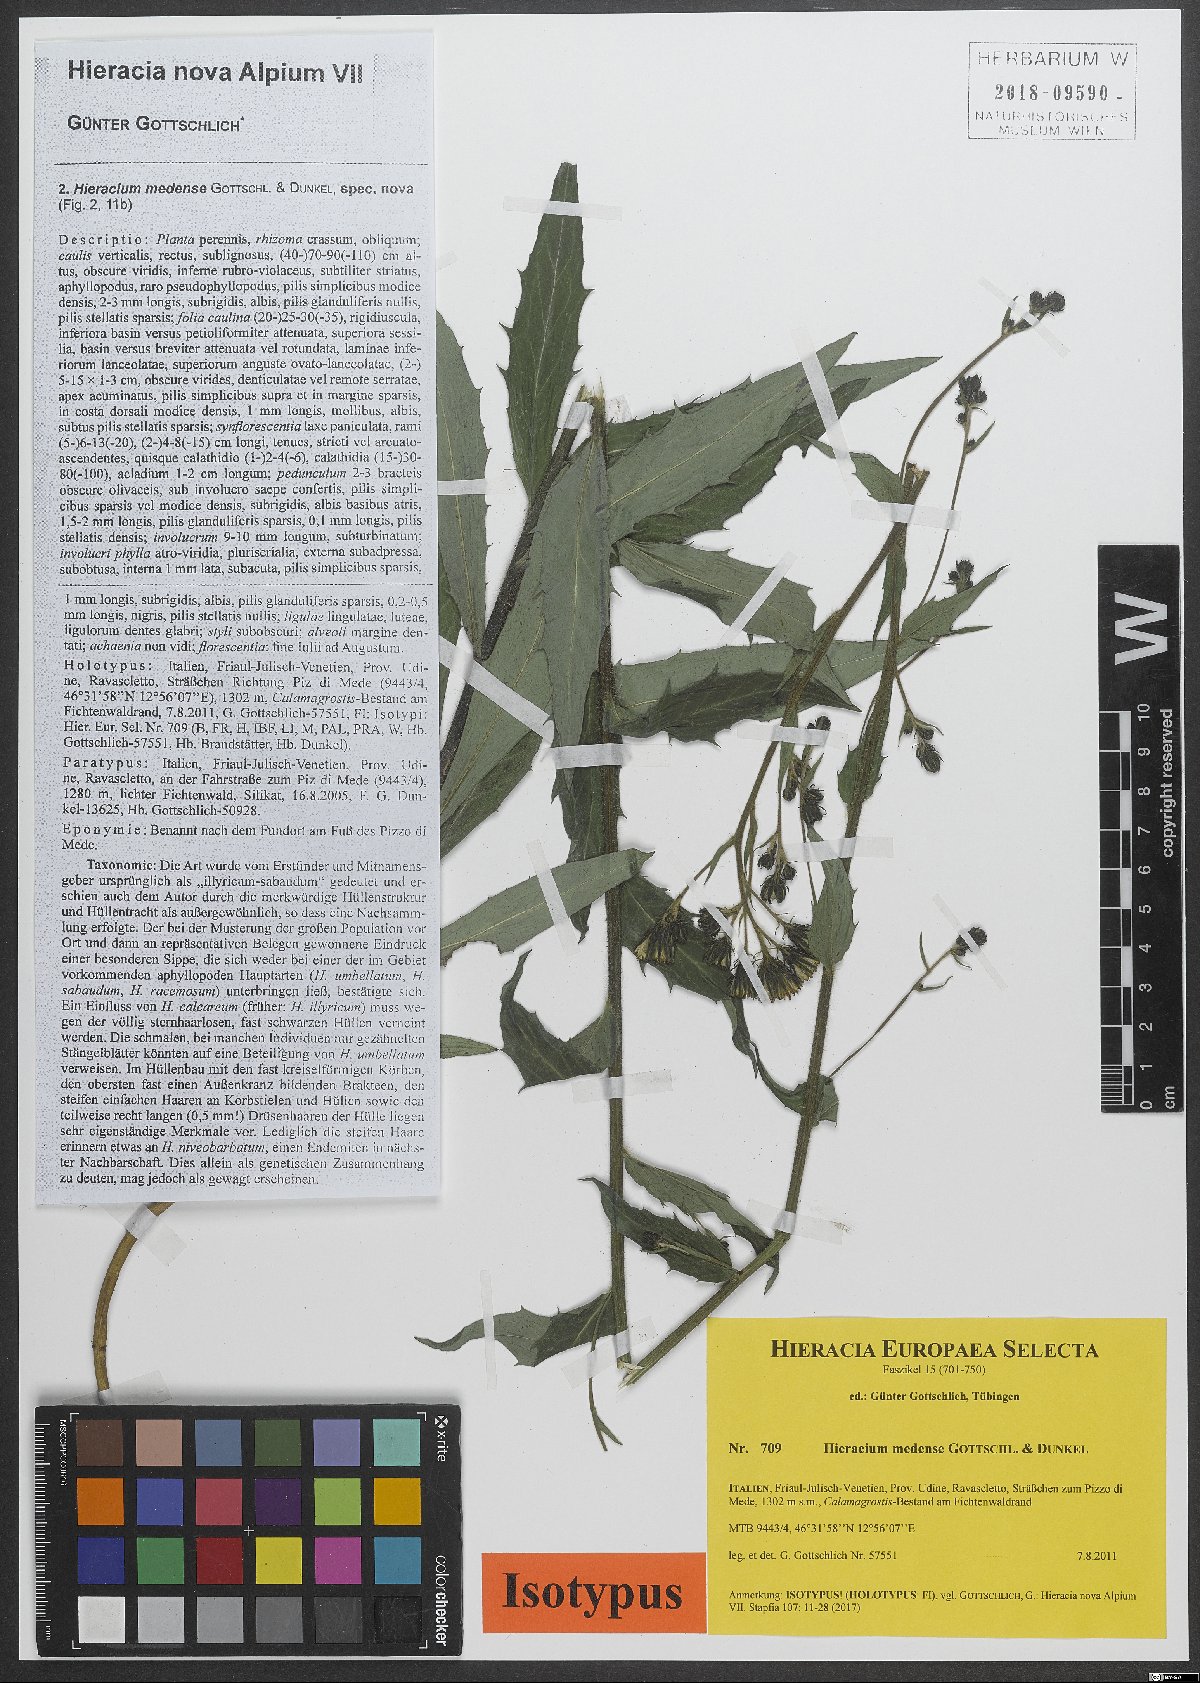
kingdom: Plantae
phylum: Tracheophyta
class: Magnoliopsida
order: Asterales
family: Asteraceae
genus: Hieracium
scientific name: Hieracium medense
